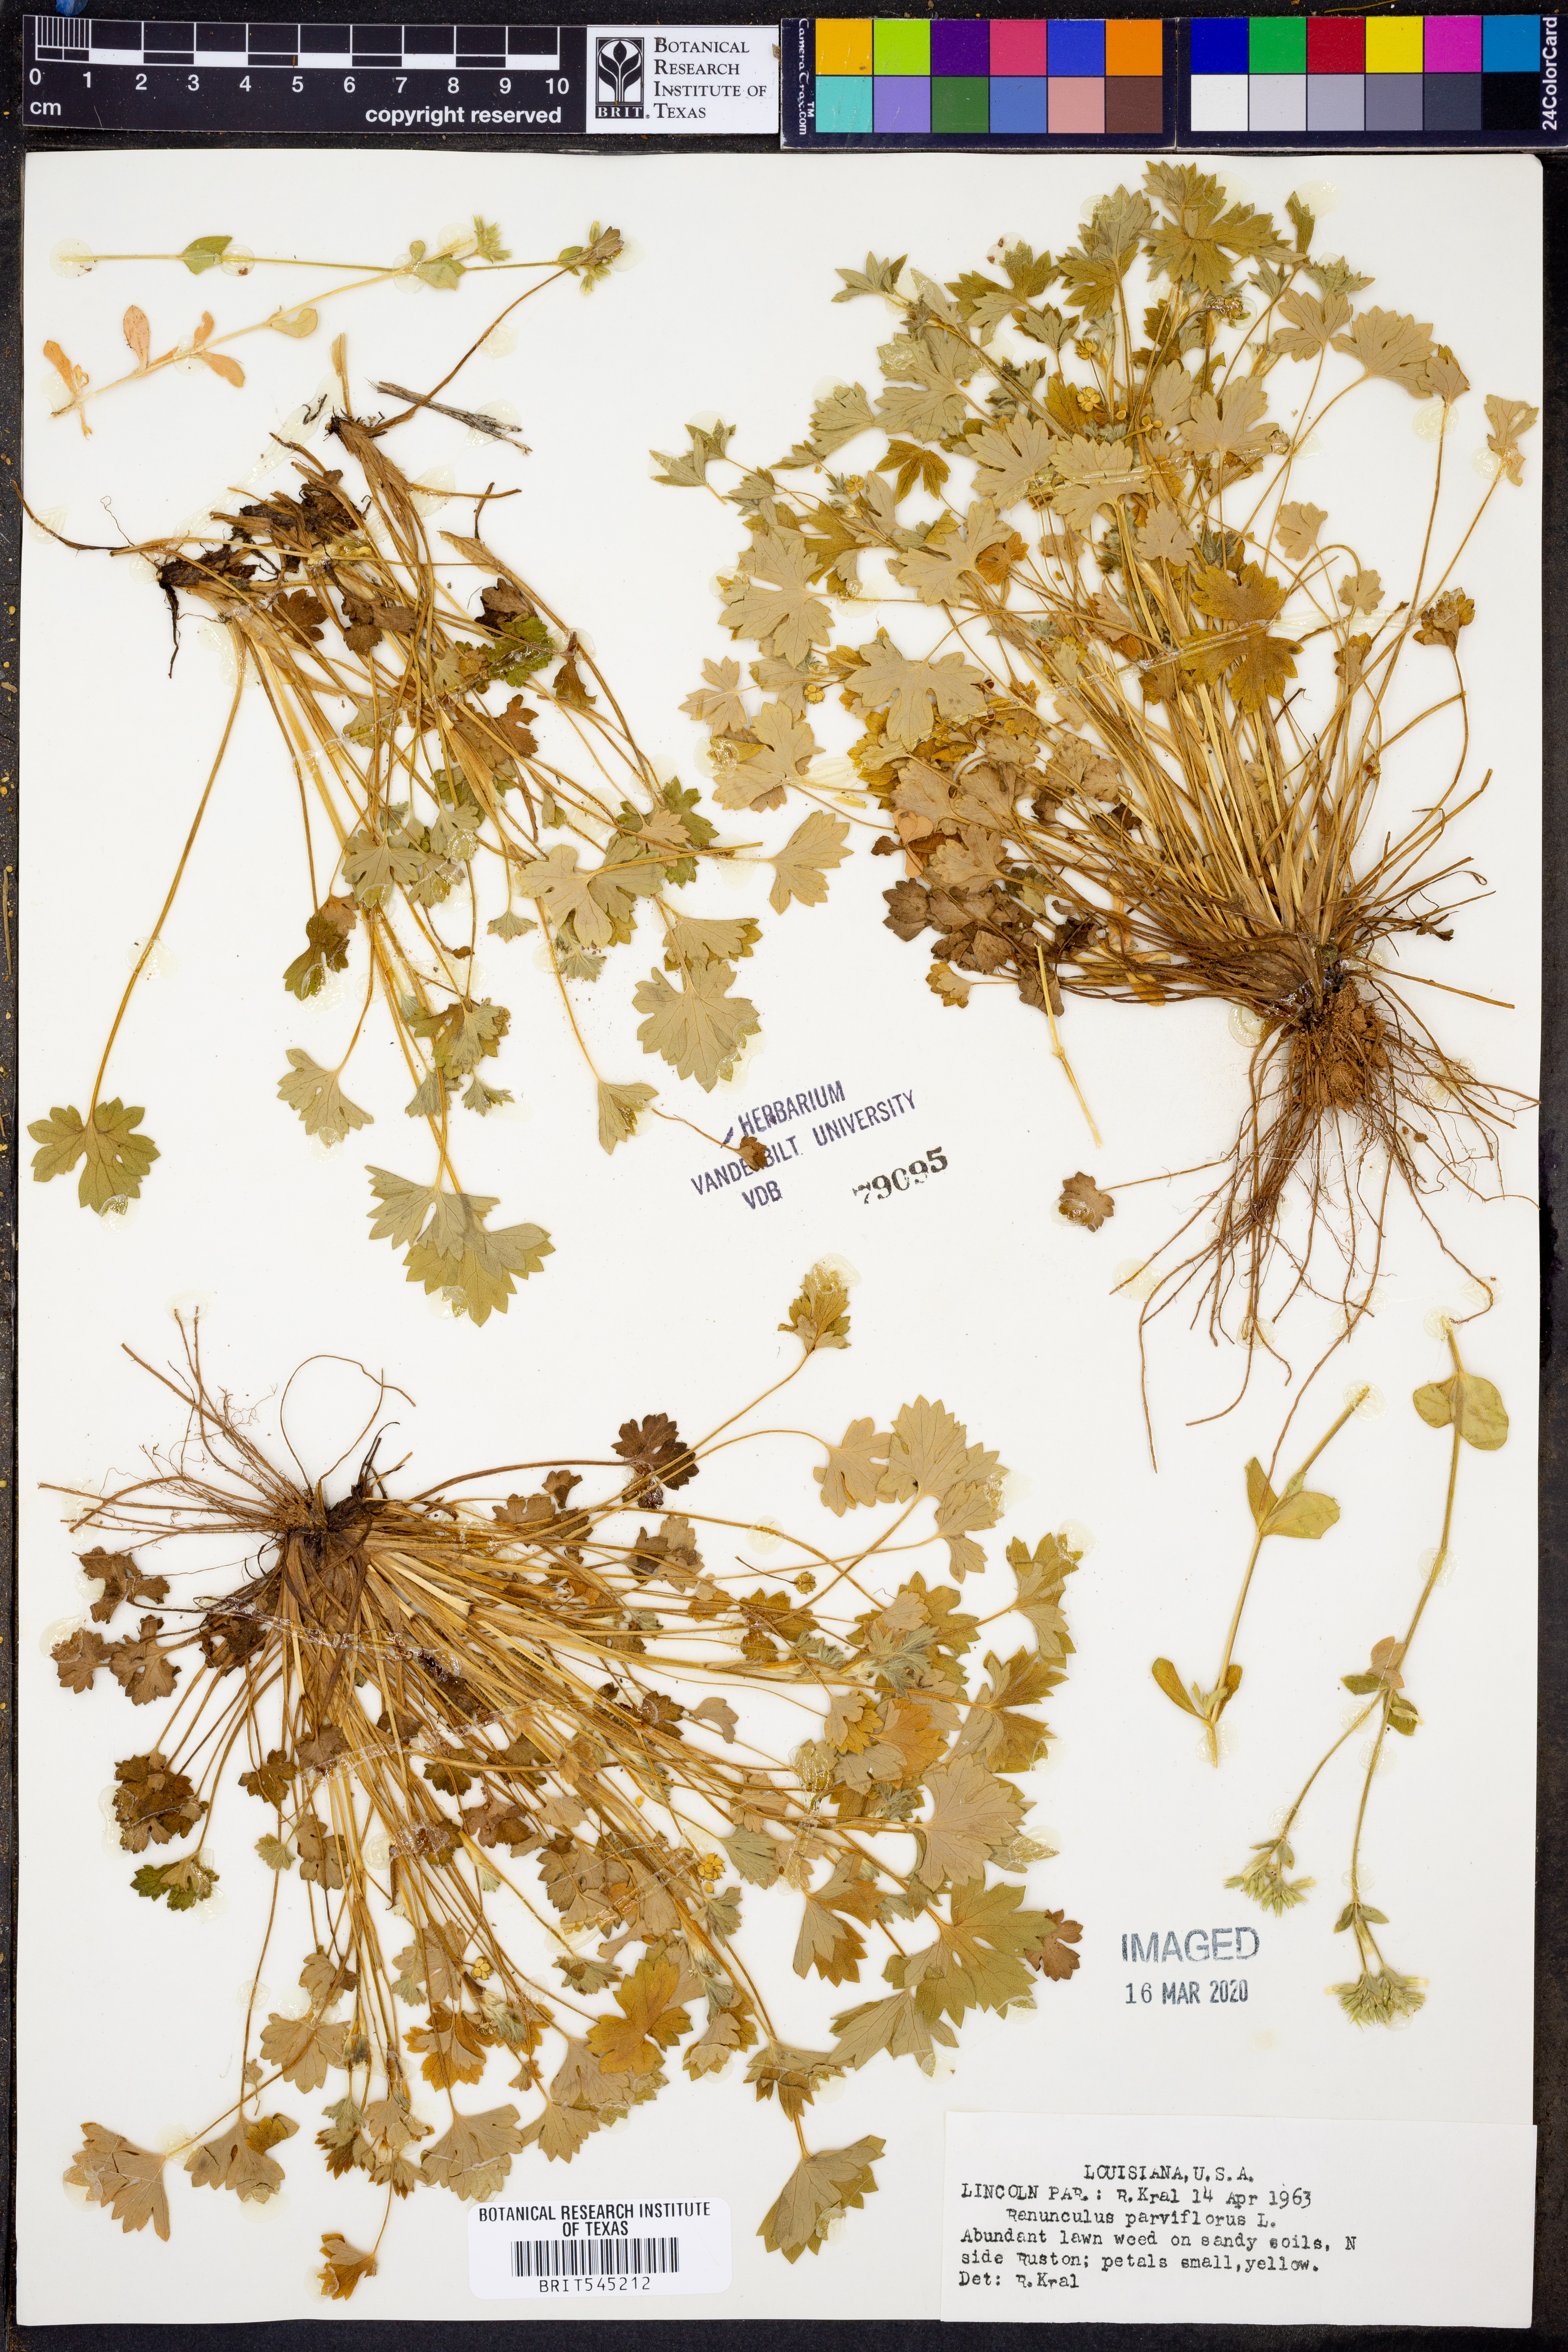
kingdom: Plantae
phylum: Tracheophyta
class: Magnoliopsida
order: Ranunculales
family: Ranunculaceae
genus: Ranunculus
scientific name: Ranunculus parviflorus
